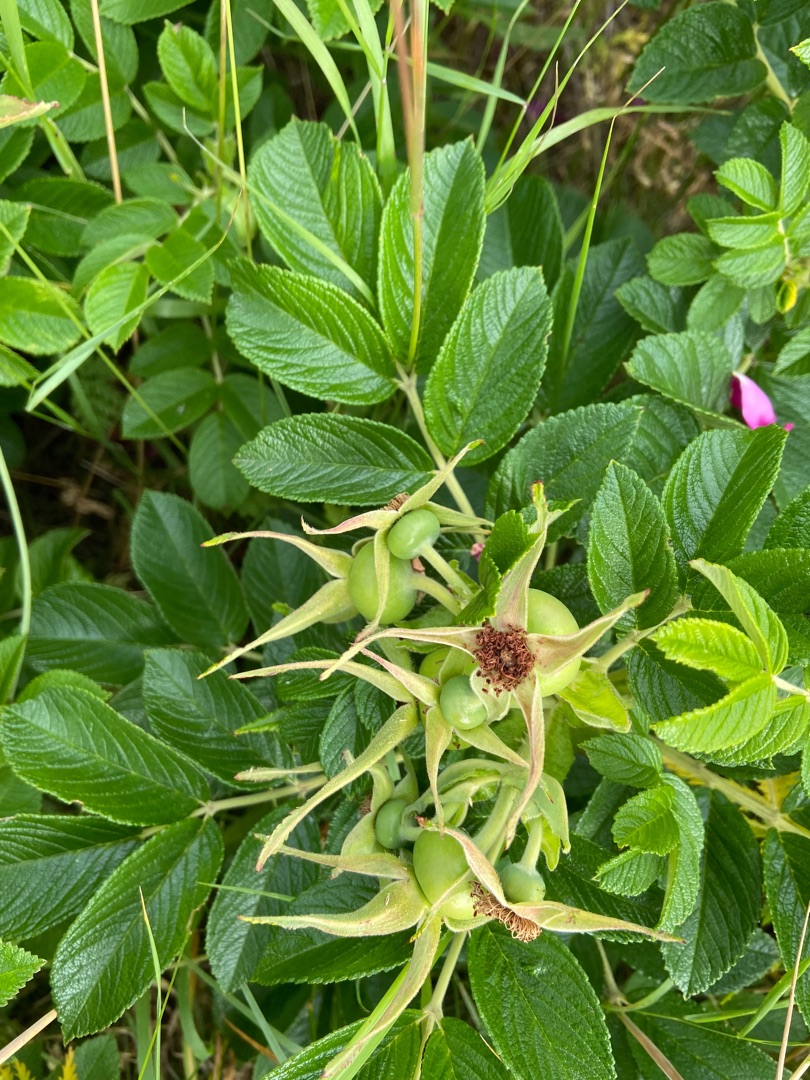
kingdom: Plantae
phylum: Tracheophyta
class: Magnoliopsida
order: Rosales
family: Rosaceae
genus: Rosa
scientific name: Rosa rugosa
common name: Rynket rose
